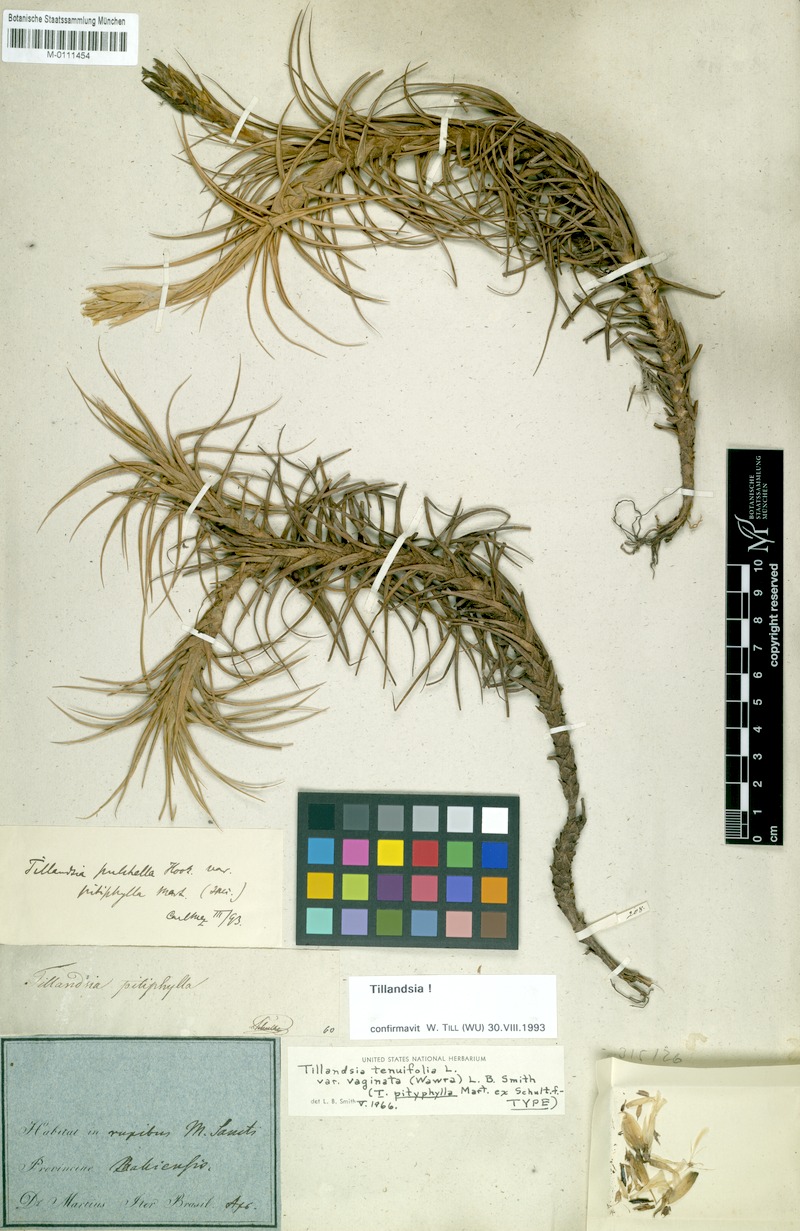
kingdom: Plantae
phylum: Tracheophyta
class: Liliopsida
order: Poales
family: Bromeliaceae
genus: Tillandsia
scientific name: Tillandsia tenuifolia
